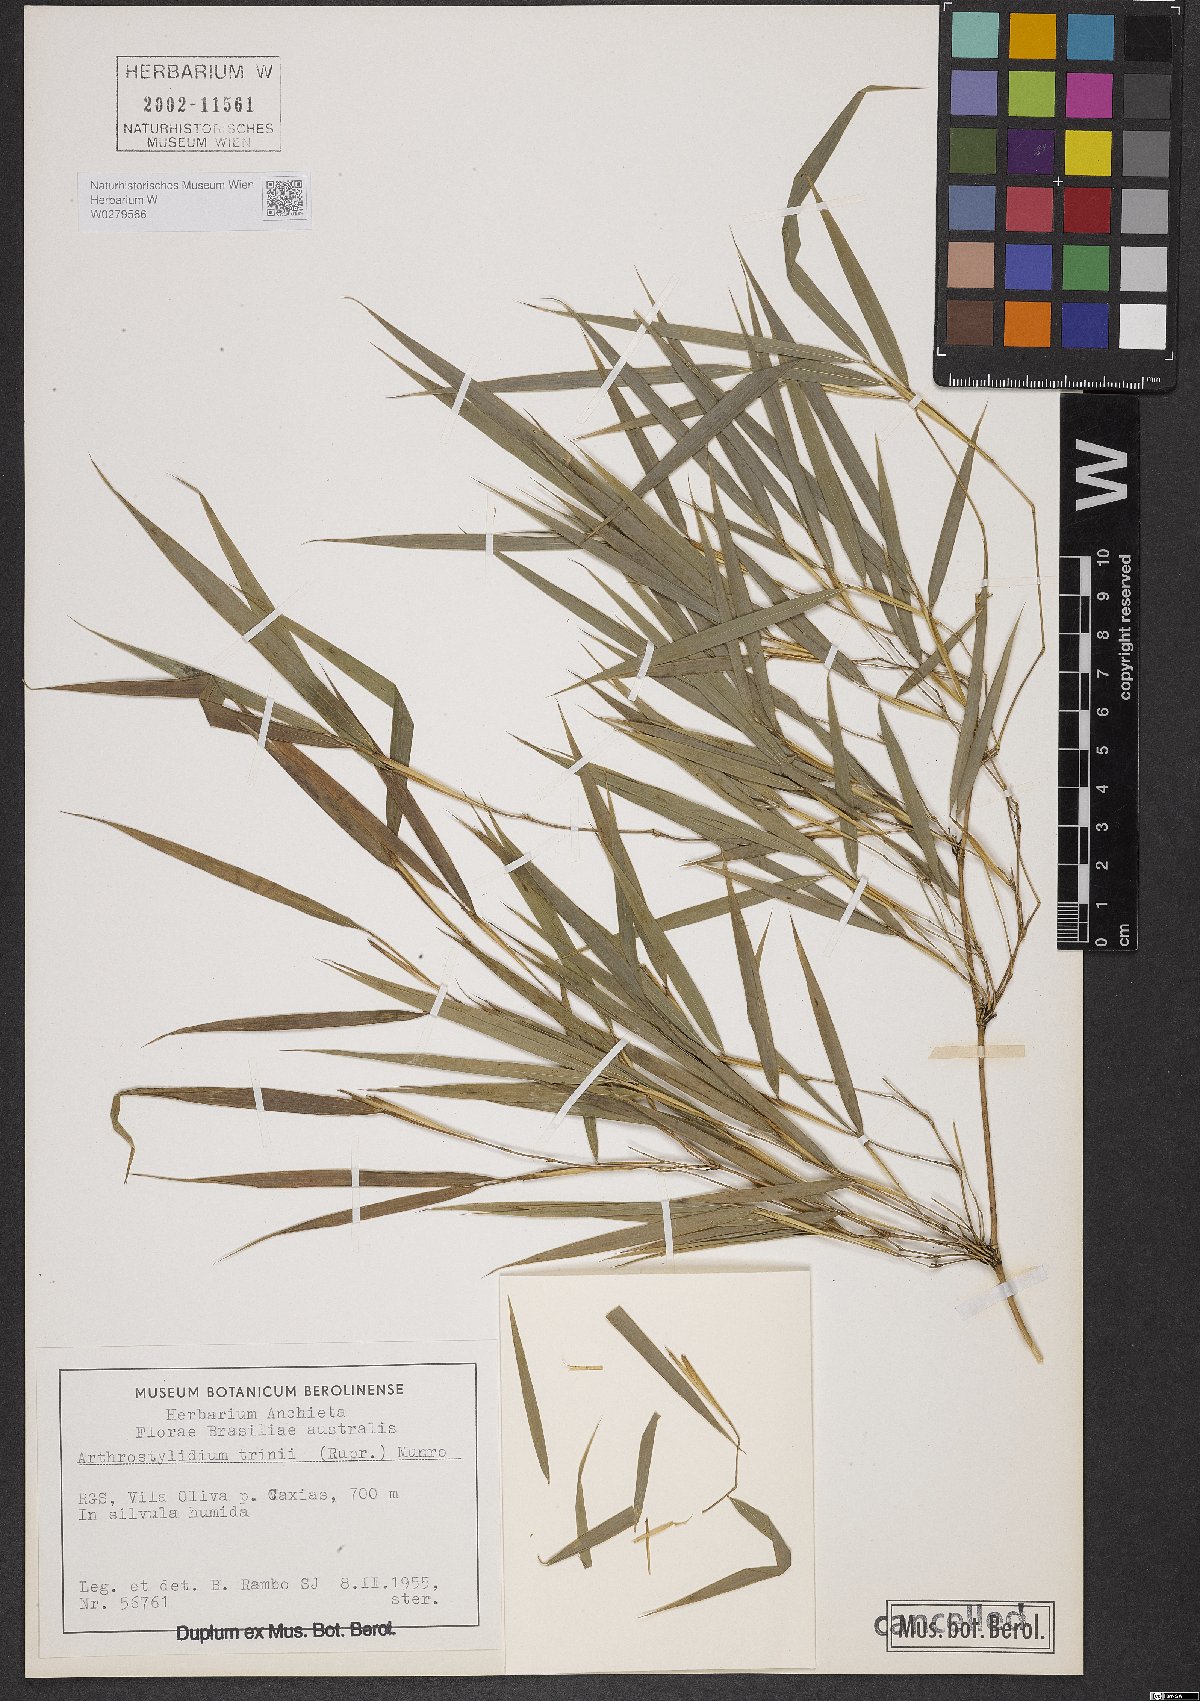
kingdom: Plantae
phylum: Tracheophyta
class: Liliopsida
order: Poales
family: Poaceae
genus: Rhipidocladum
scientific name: Rhipidocladum parviflorum
